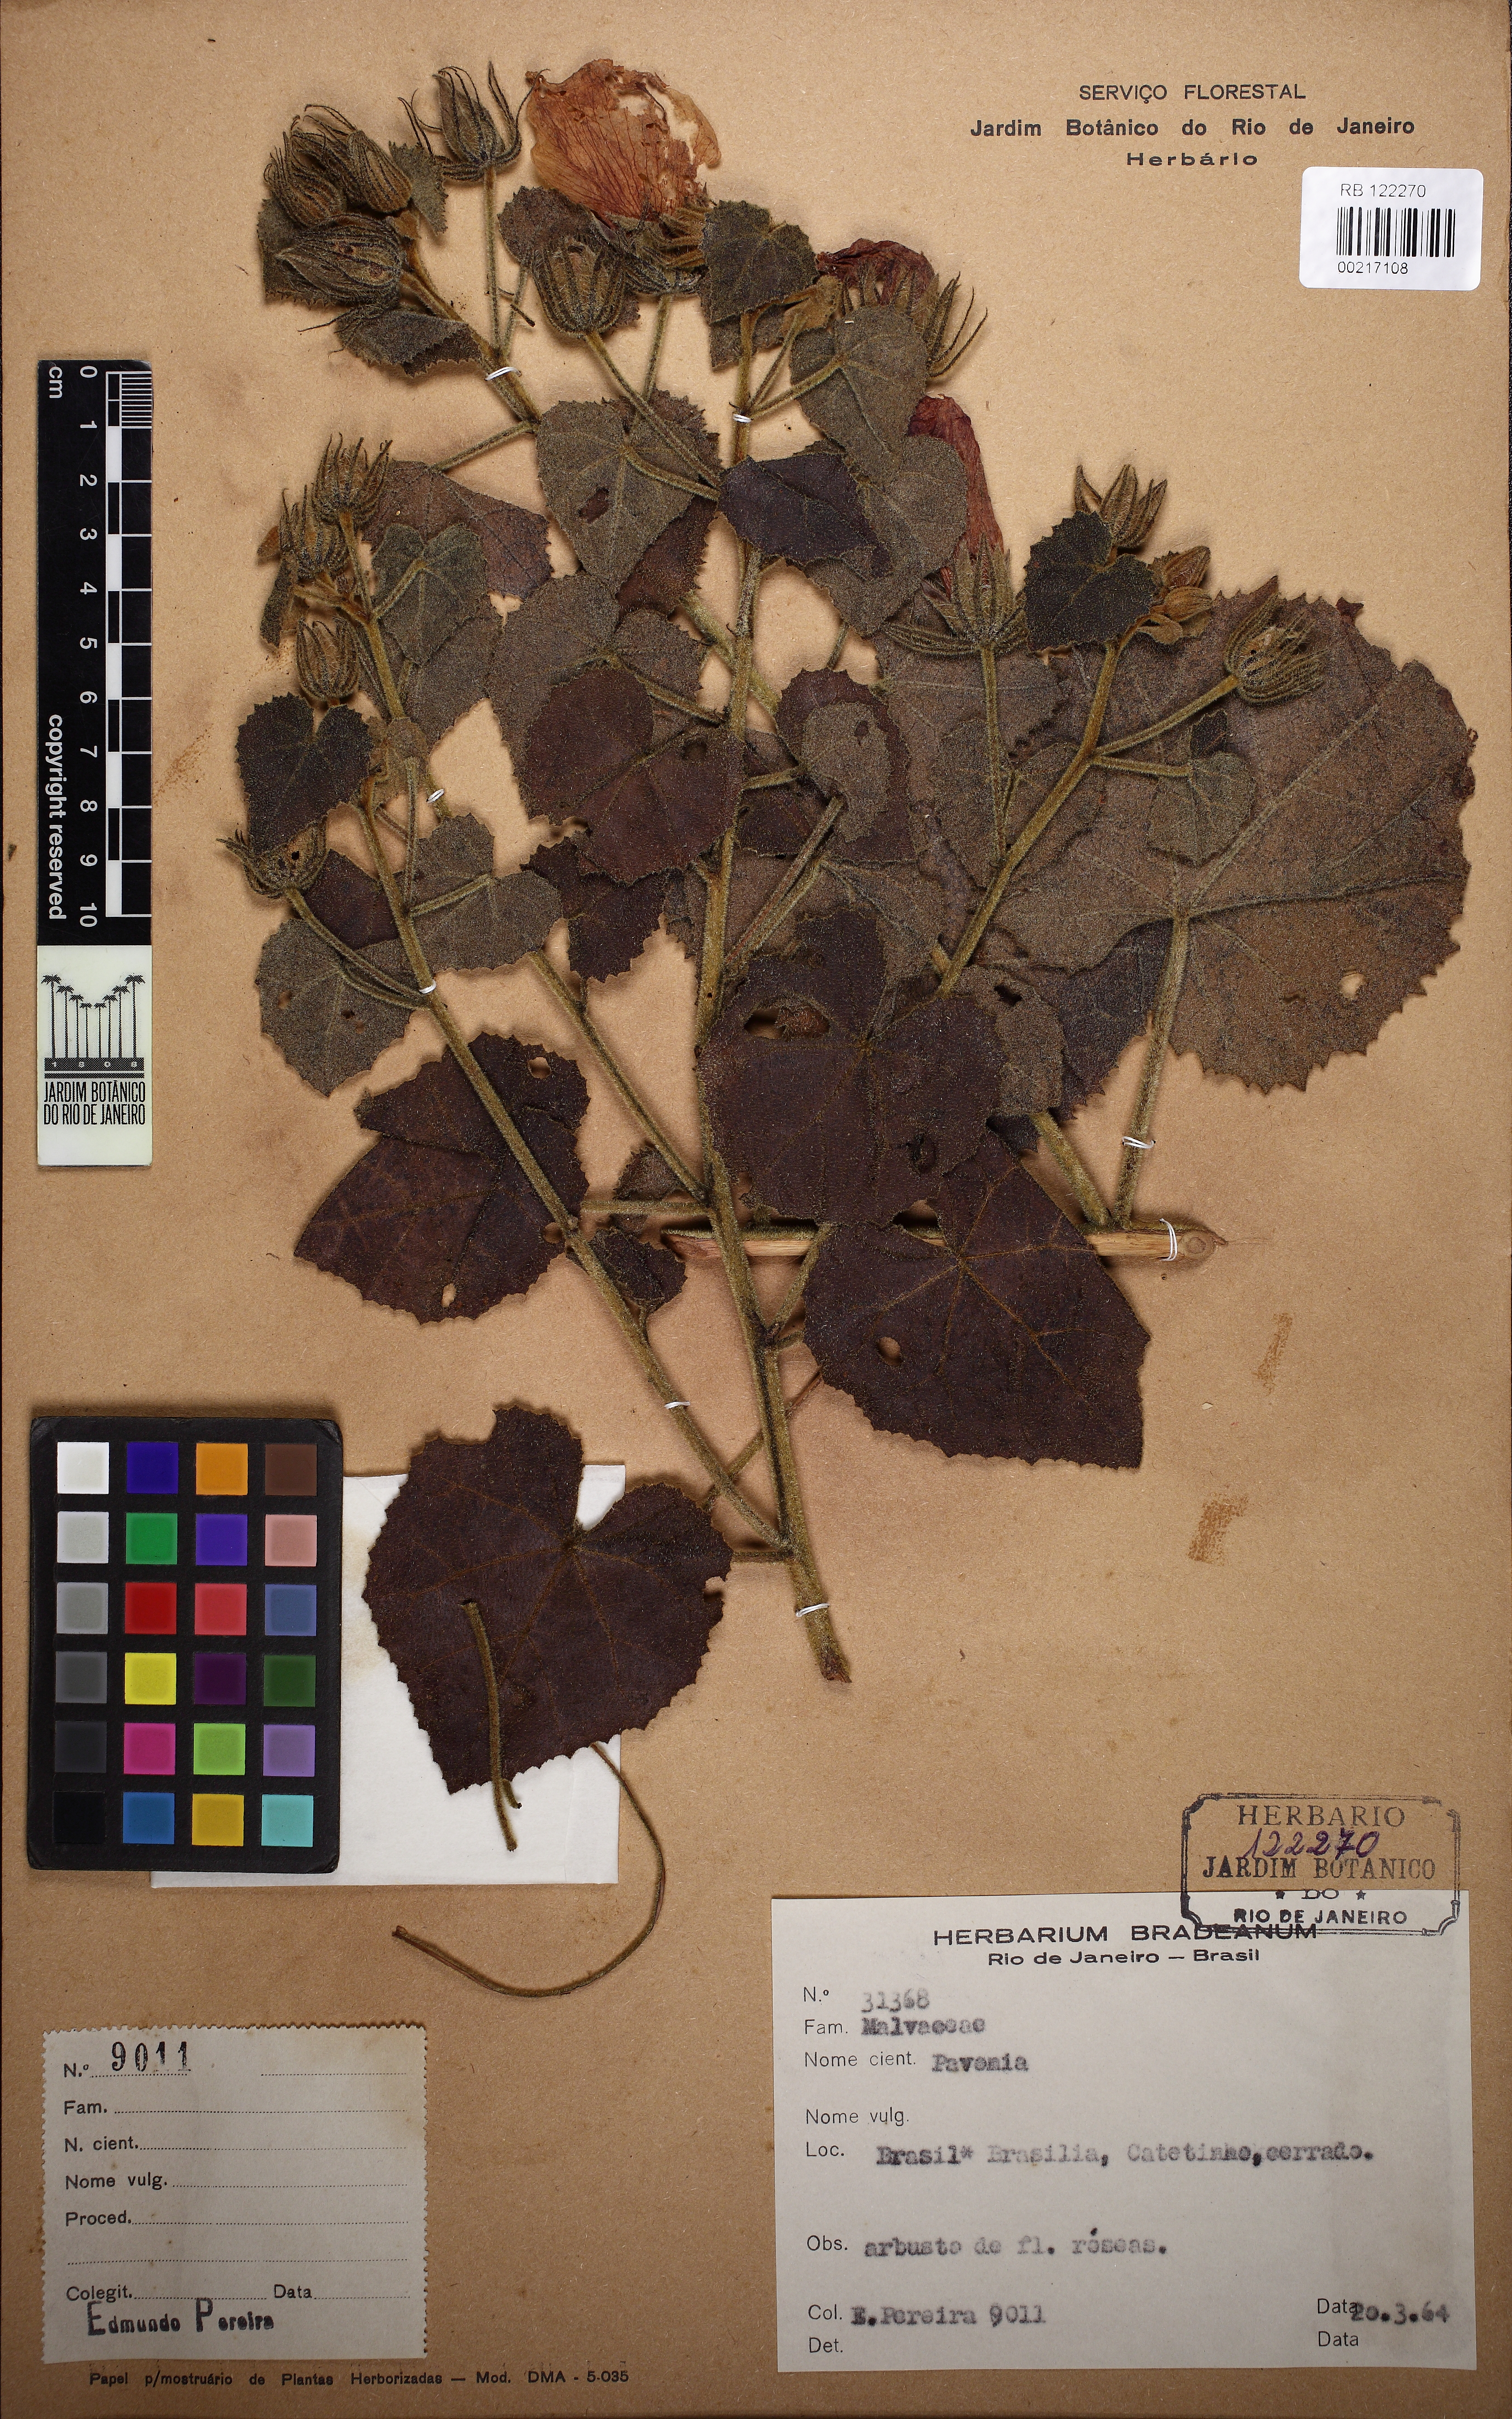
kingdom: Plantae
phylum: Tracheophyta
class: Magnoliopsida
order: Malvales
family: Malvaceae
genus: Pavonia
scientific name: Pavonia immitis
